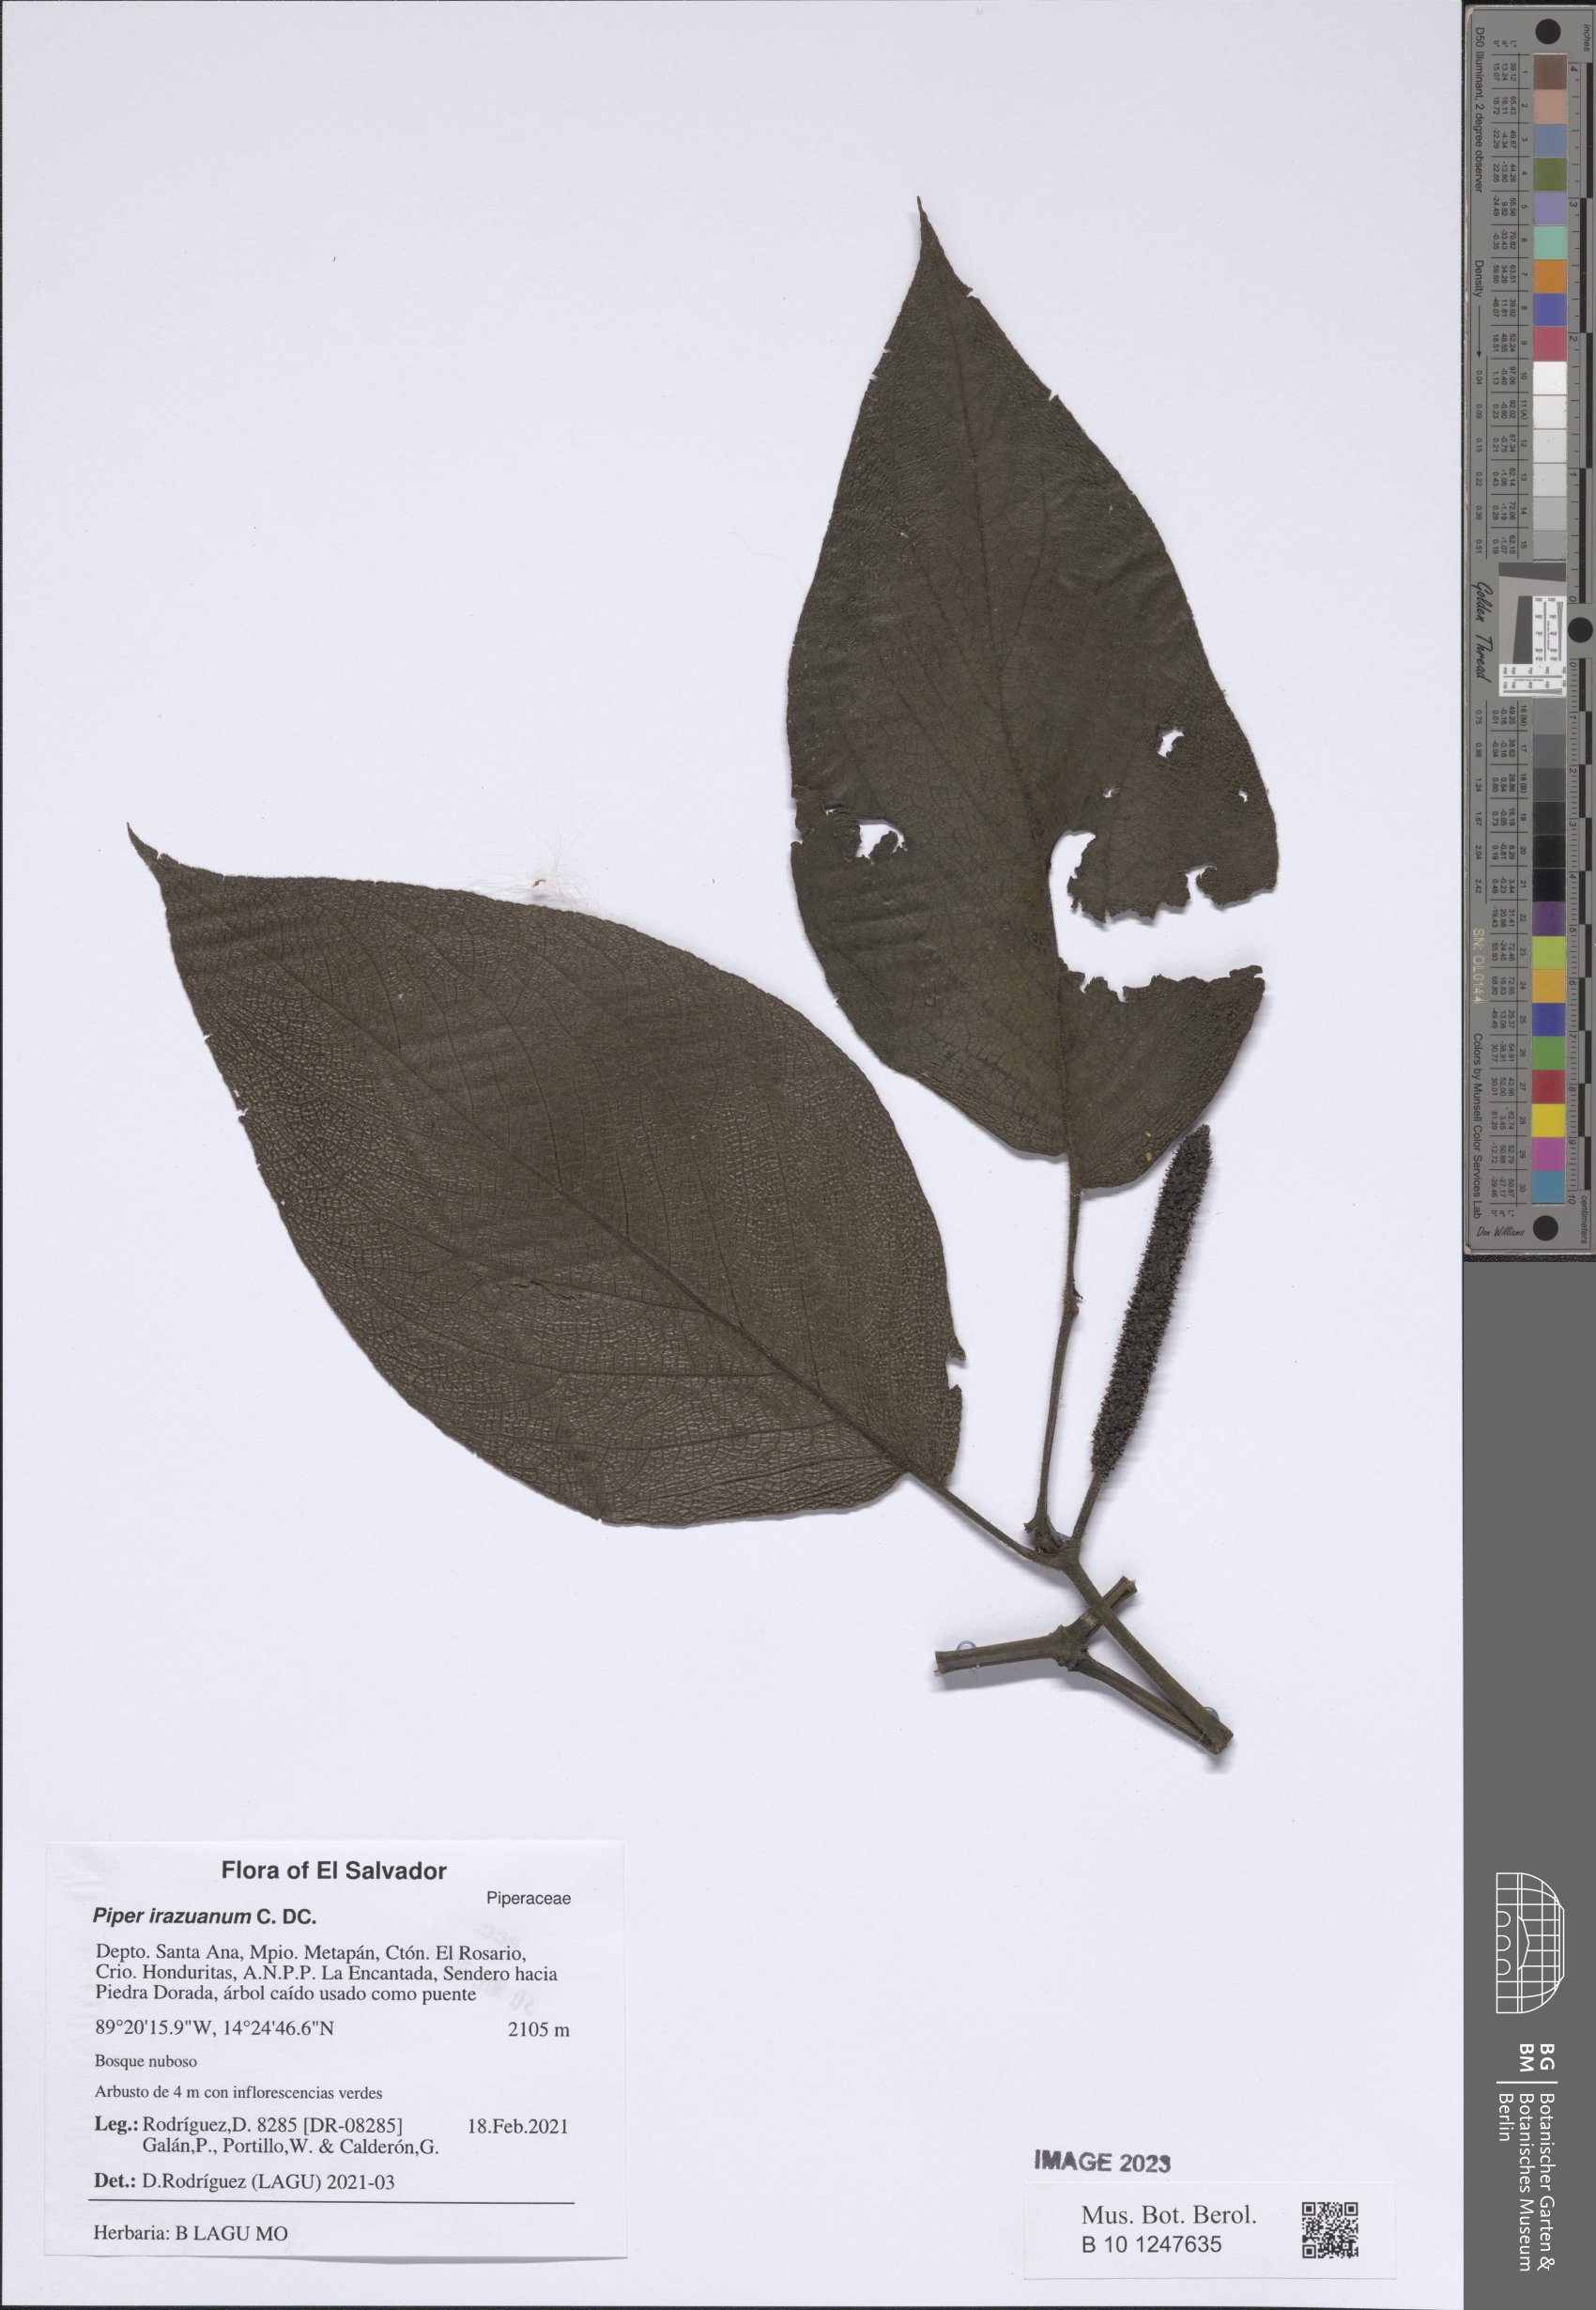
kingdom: Plantae
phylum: Tracheophyta
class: Magnoliopsida
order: Piperales
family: Piperaceae
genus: Piper
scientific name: Piper irazuanum
